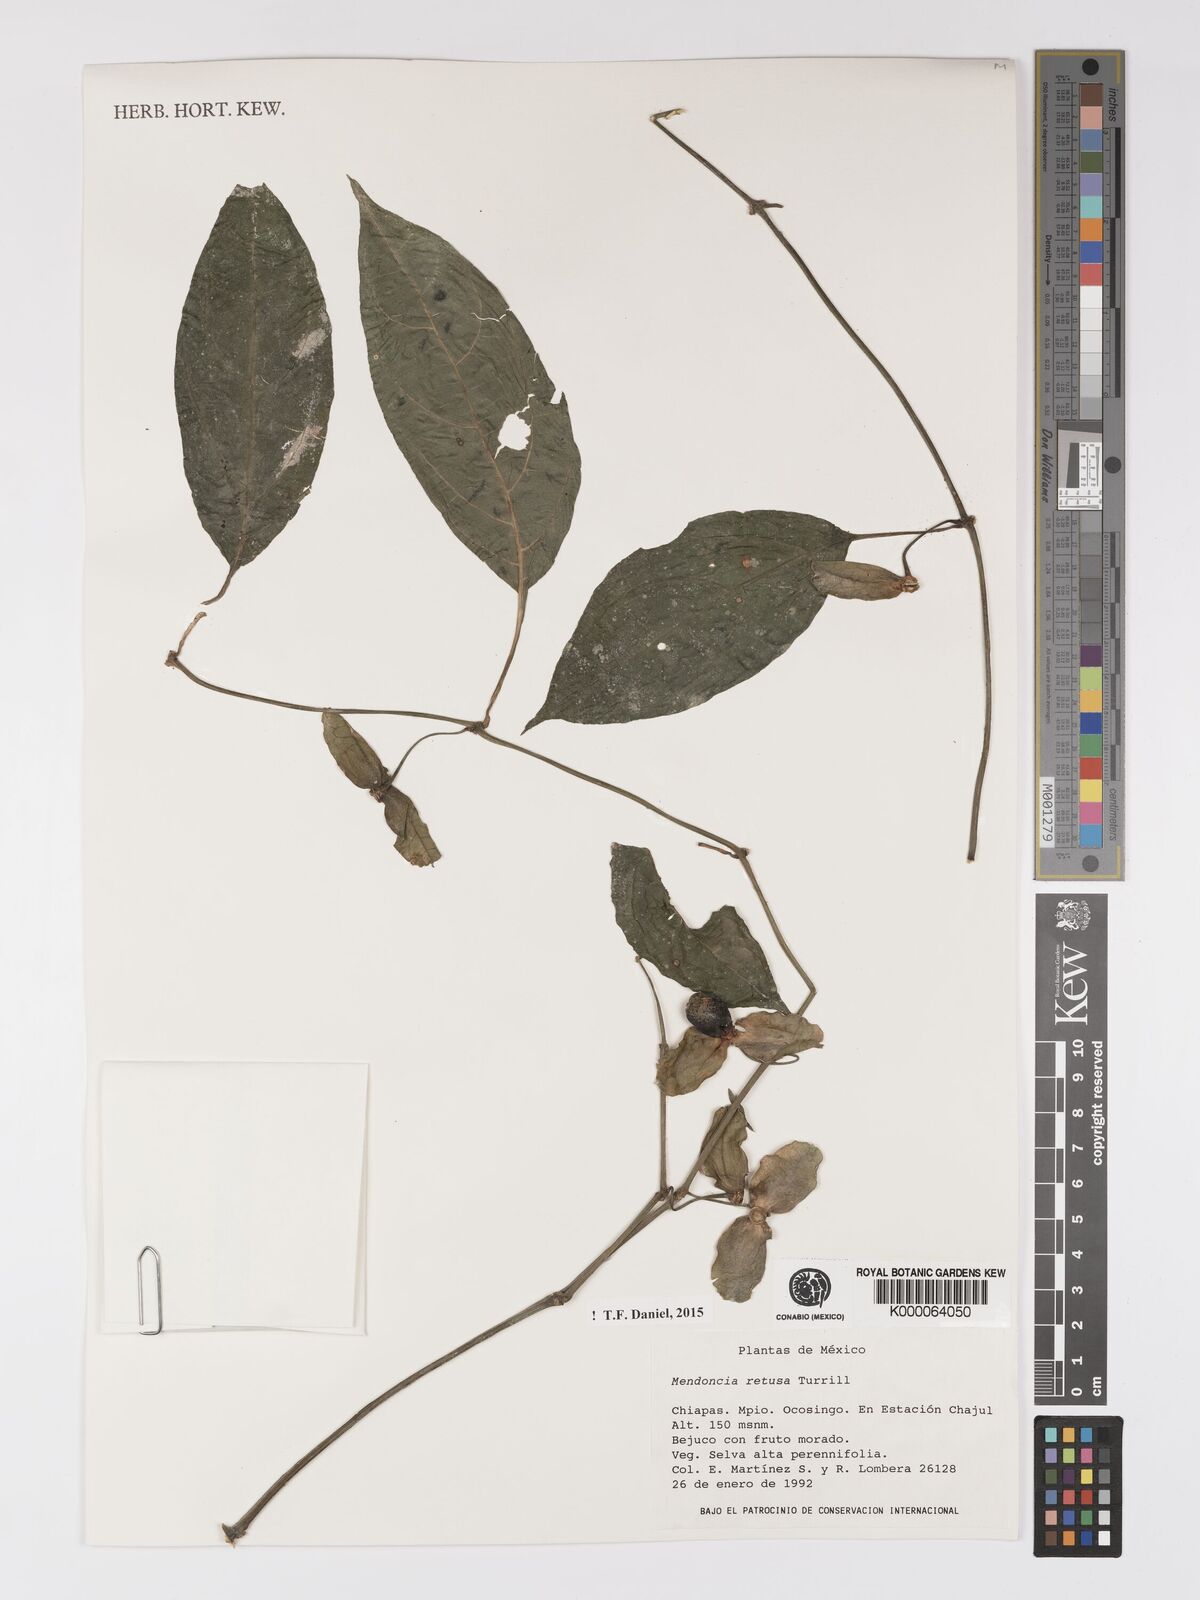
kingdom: Plantae
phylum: Tracheophyta
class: Magnoliopsida
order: Lamiales
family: Acanthaceae
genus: Mendoncia
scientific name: Mendoncia retusa
